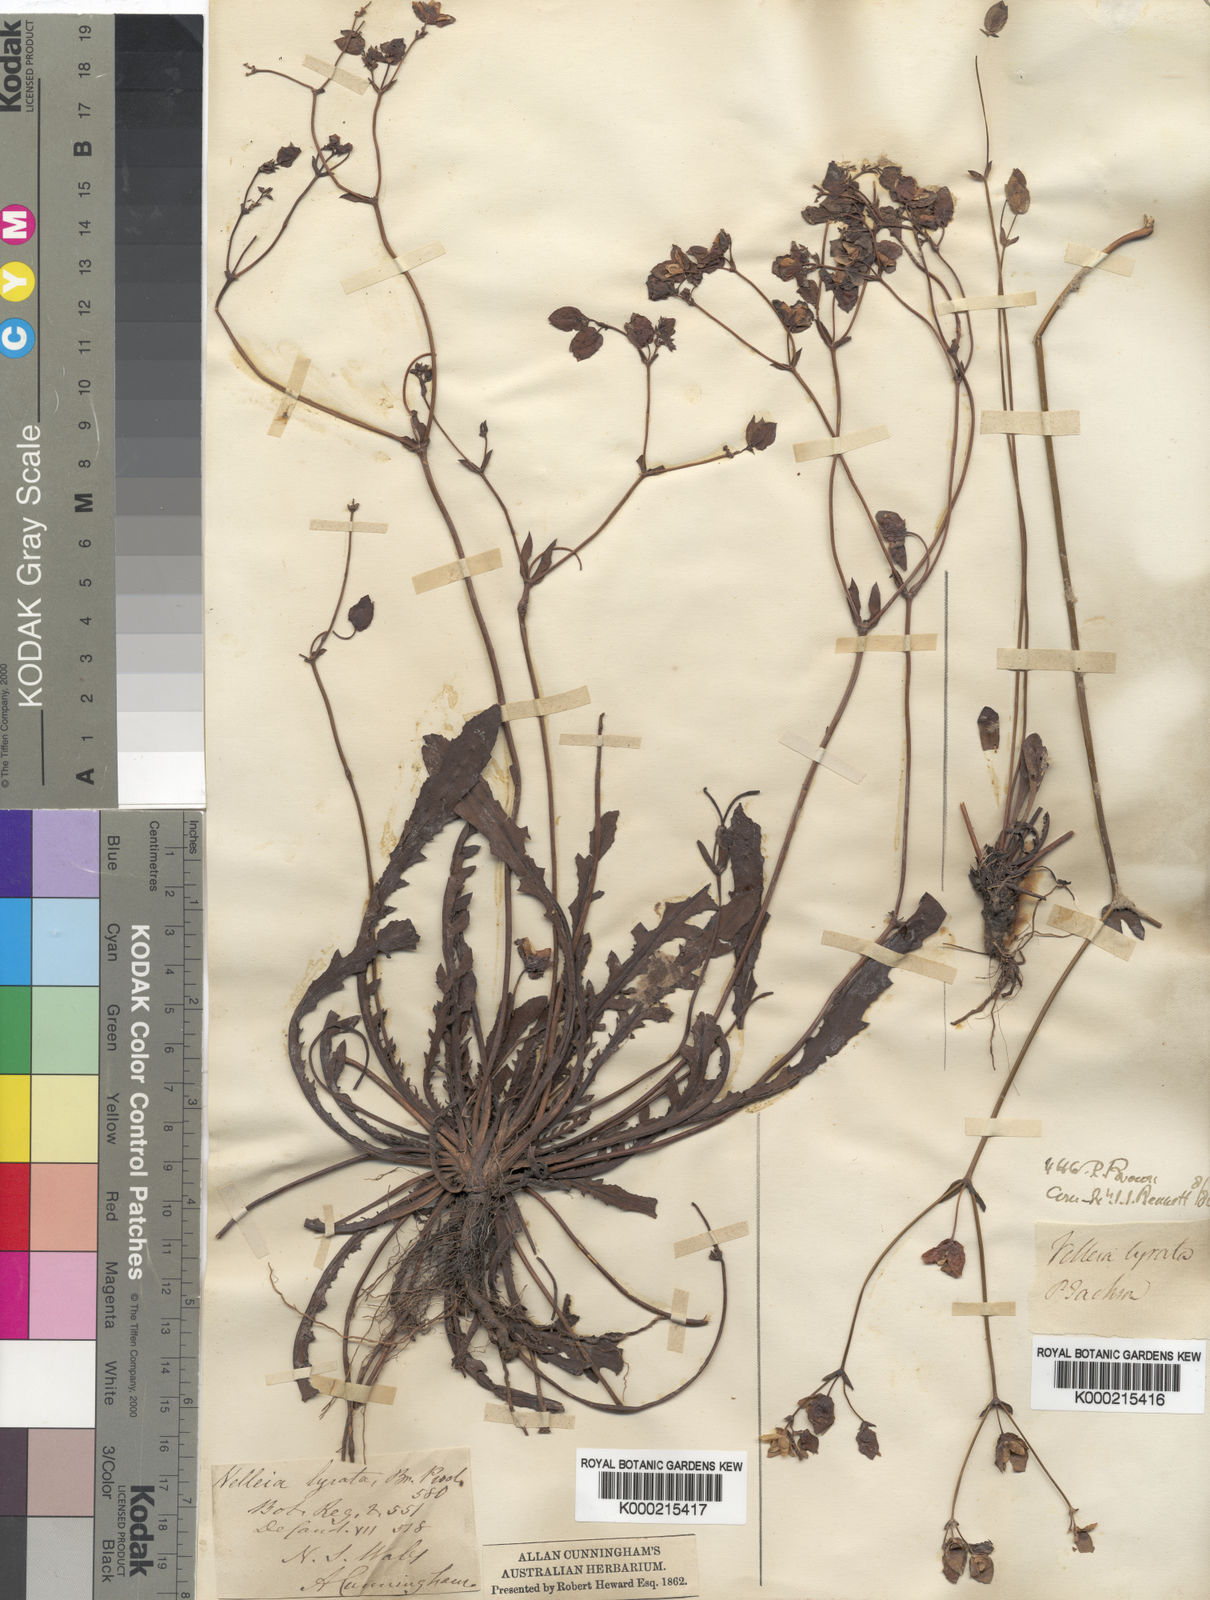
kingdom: Plantae
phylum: Tracheophyta
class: Magnoliopsida
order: Asterales
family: Goodeniaceae
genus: Goodenia
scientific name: Goodenia caroliniana
